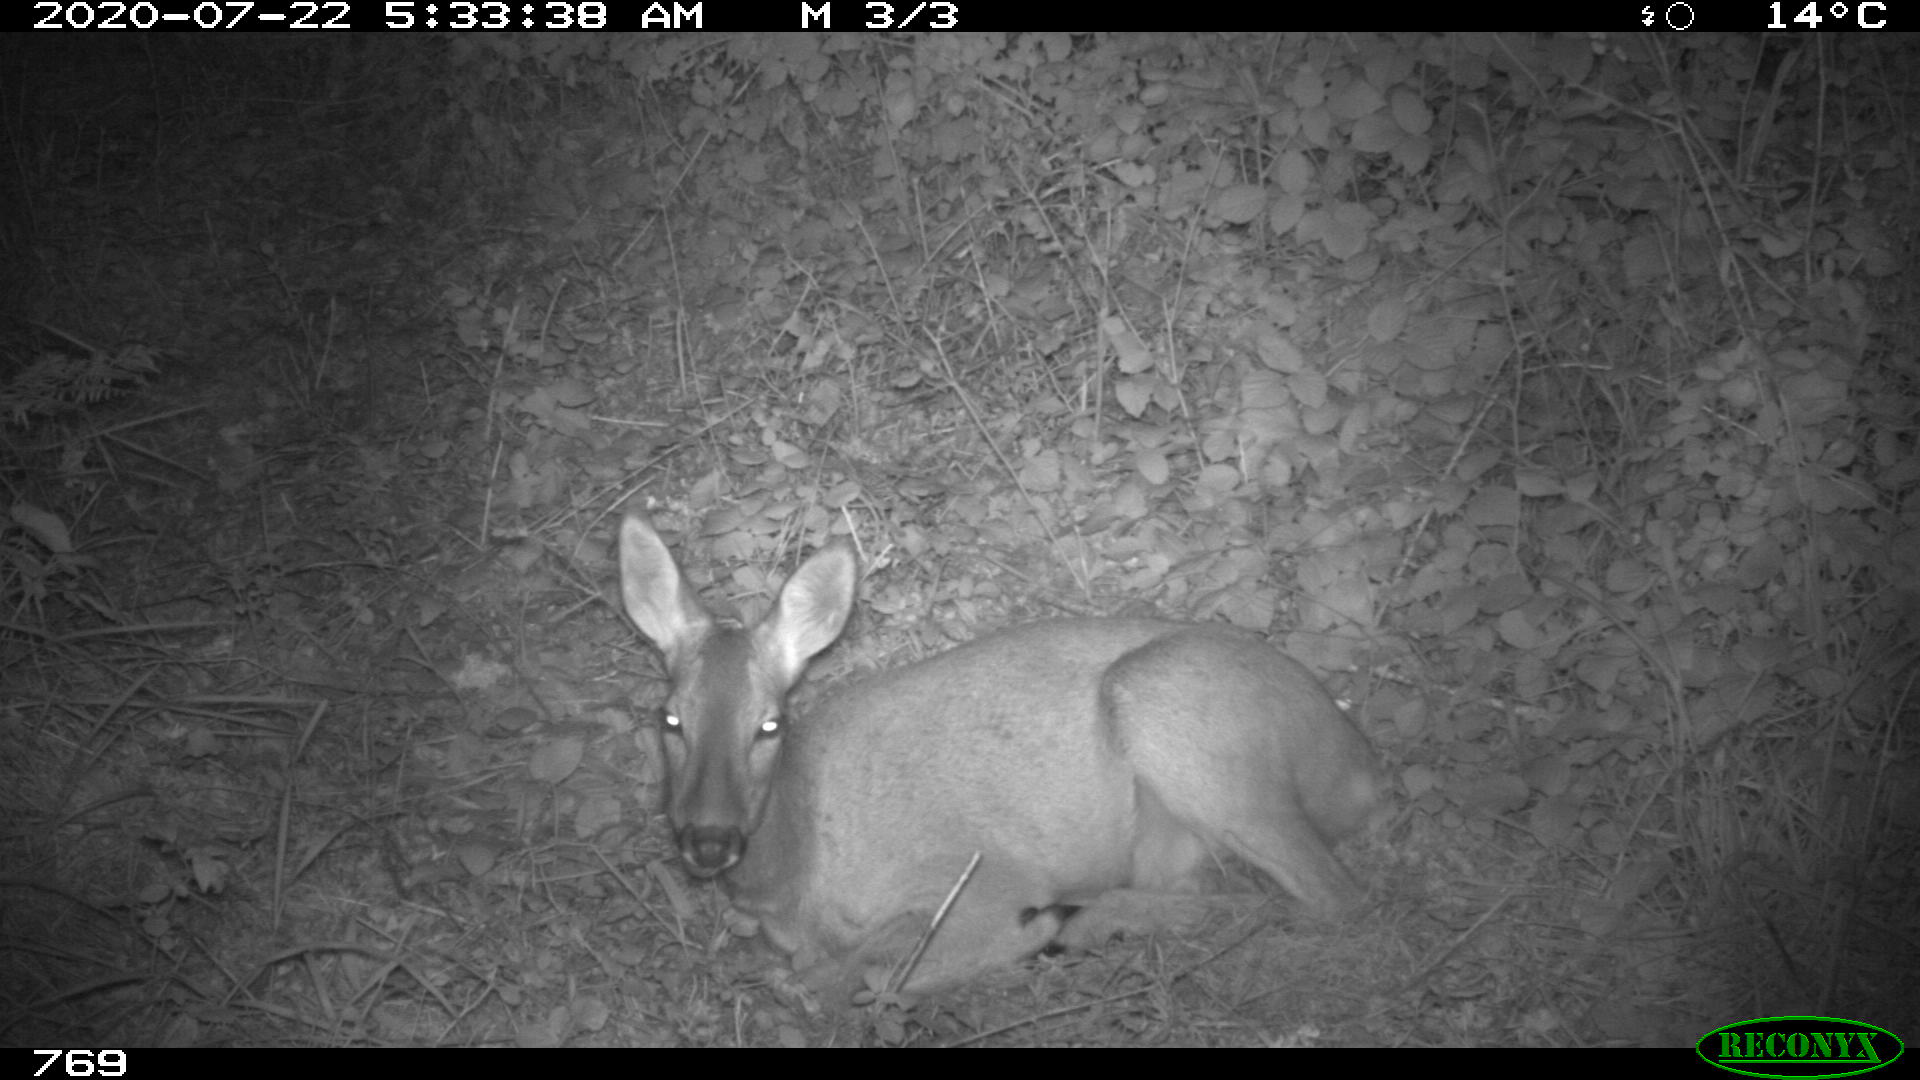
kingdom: Animalia
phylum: Chordata
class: Mammalia
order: Artiodactyla
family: Cervidae
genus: Capreolus
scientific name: Capreolus capreolus
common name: Western roe deer
